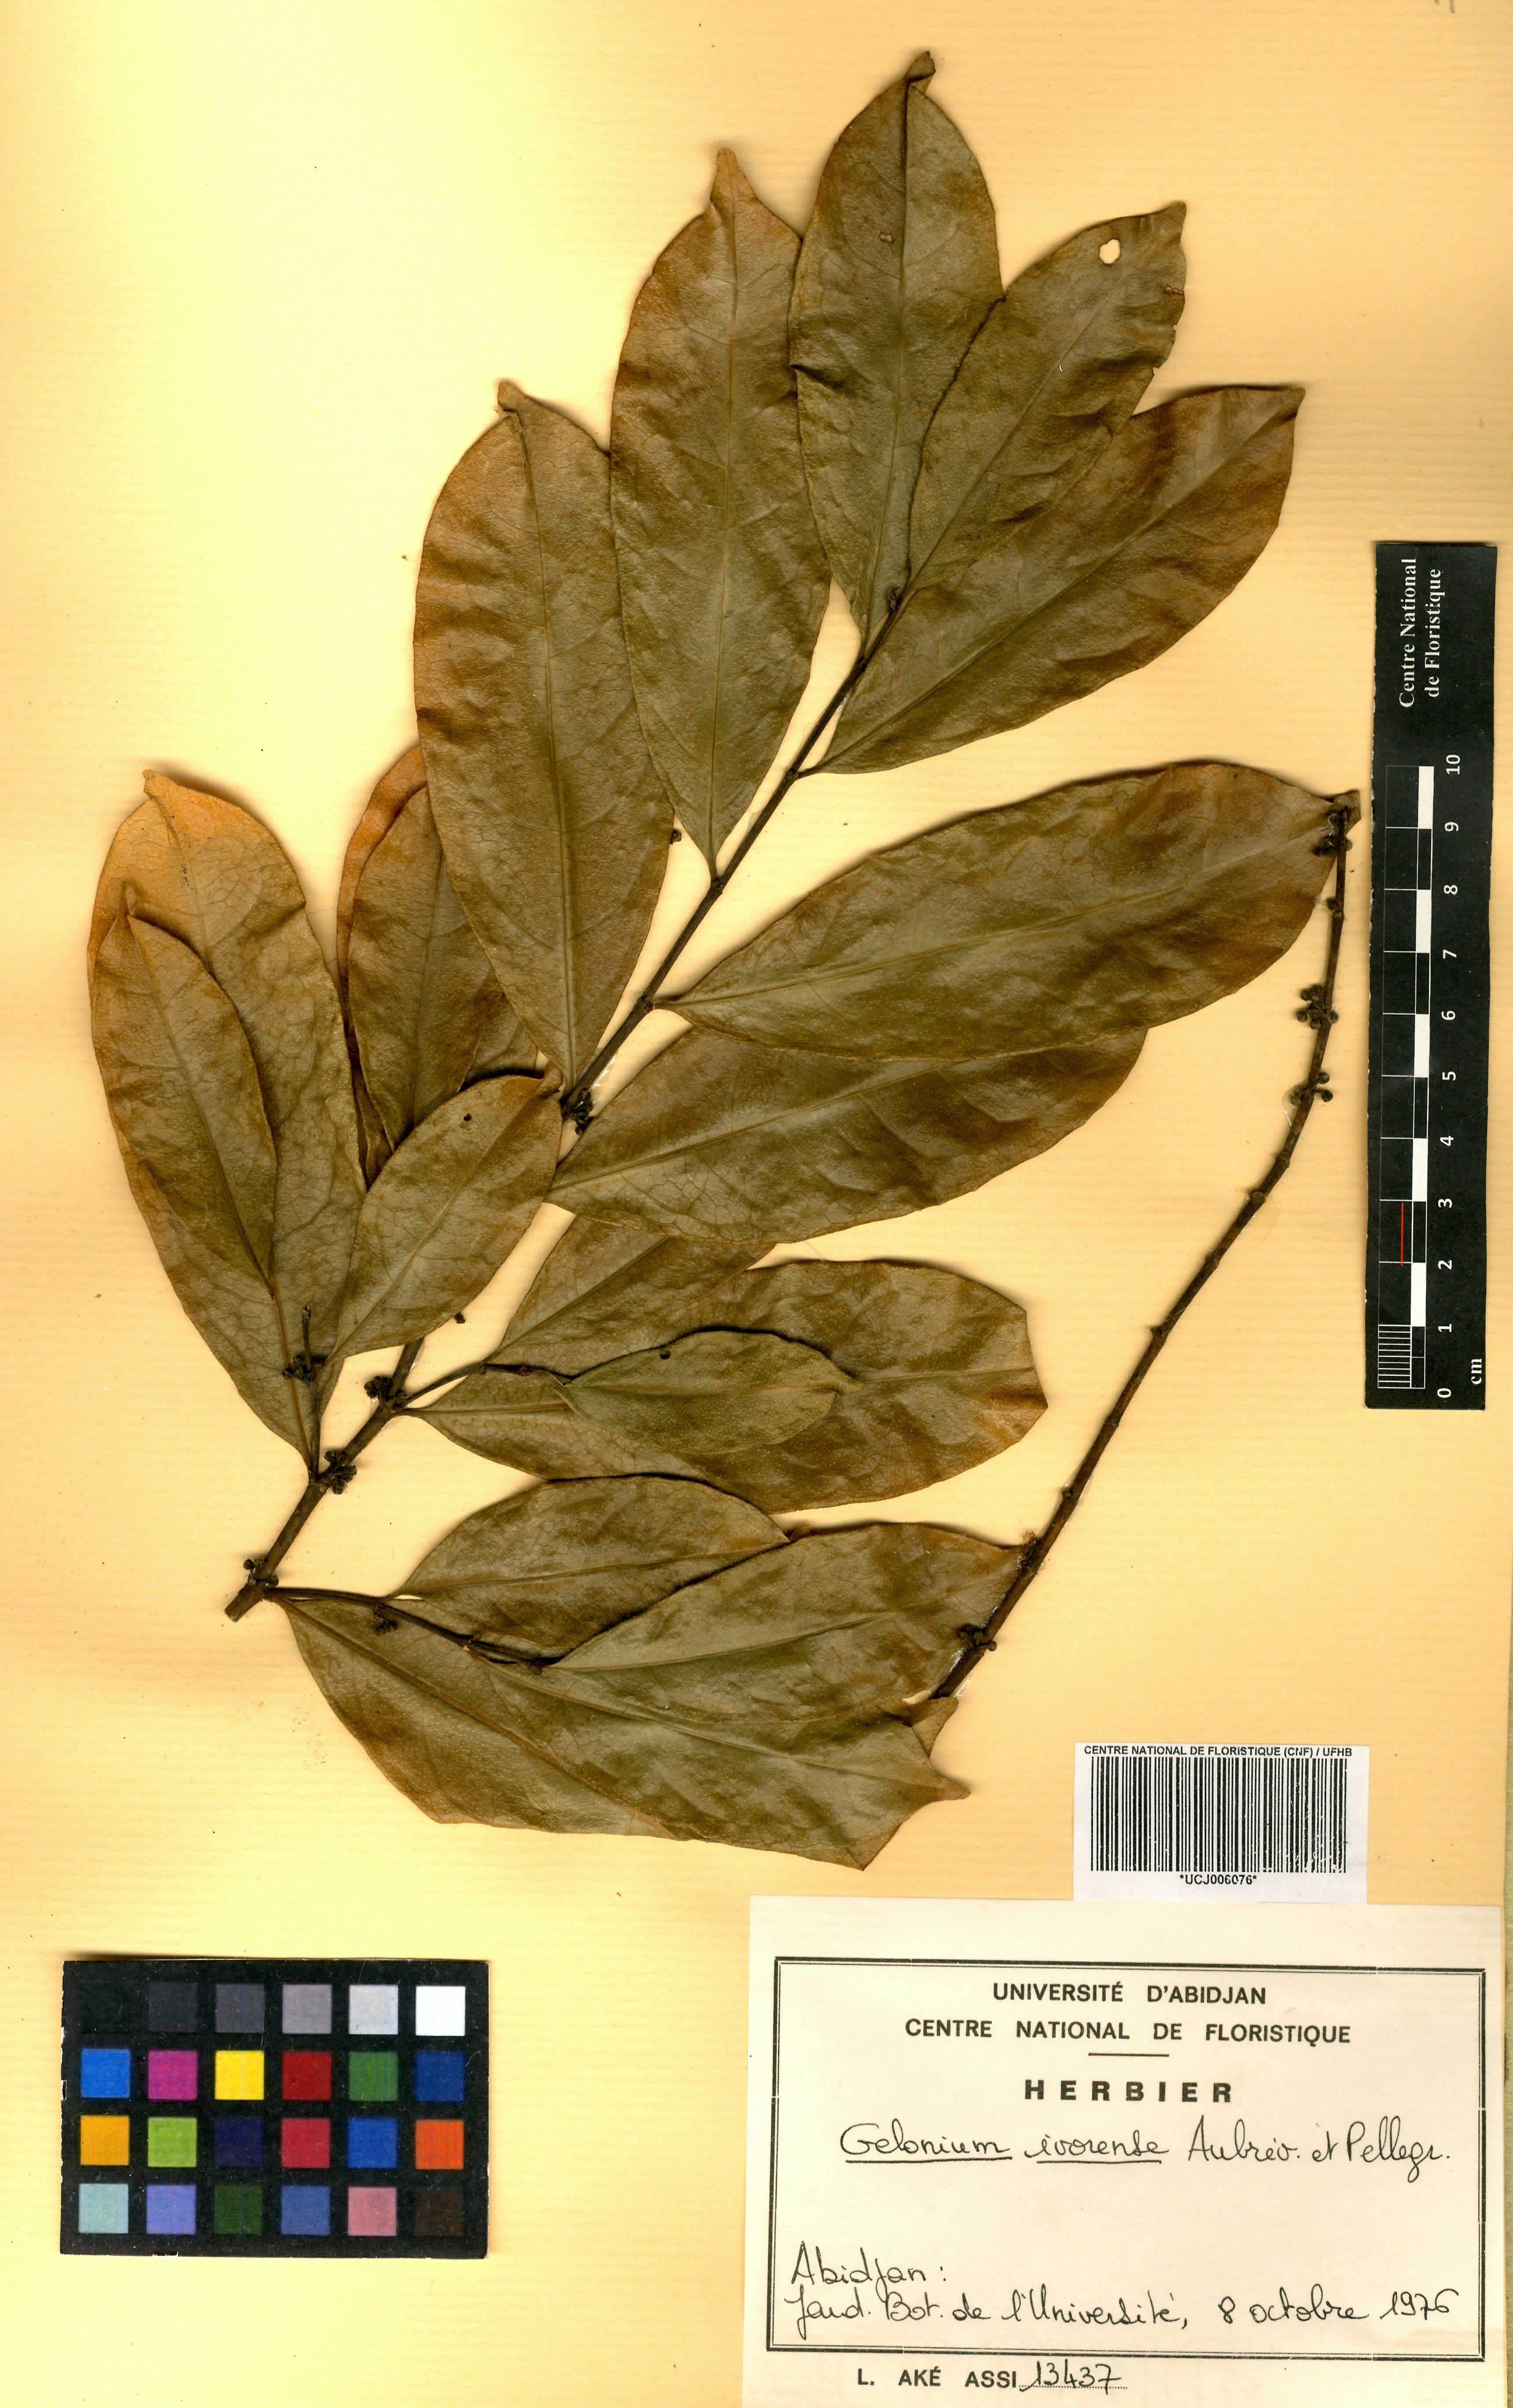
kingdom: Plantae
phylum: Tracheophyta
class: Magnoliopsida
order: Malpighiales
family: Euphorbiaceae
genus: Suregada
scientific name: Suregada ivorensis
